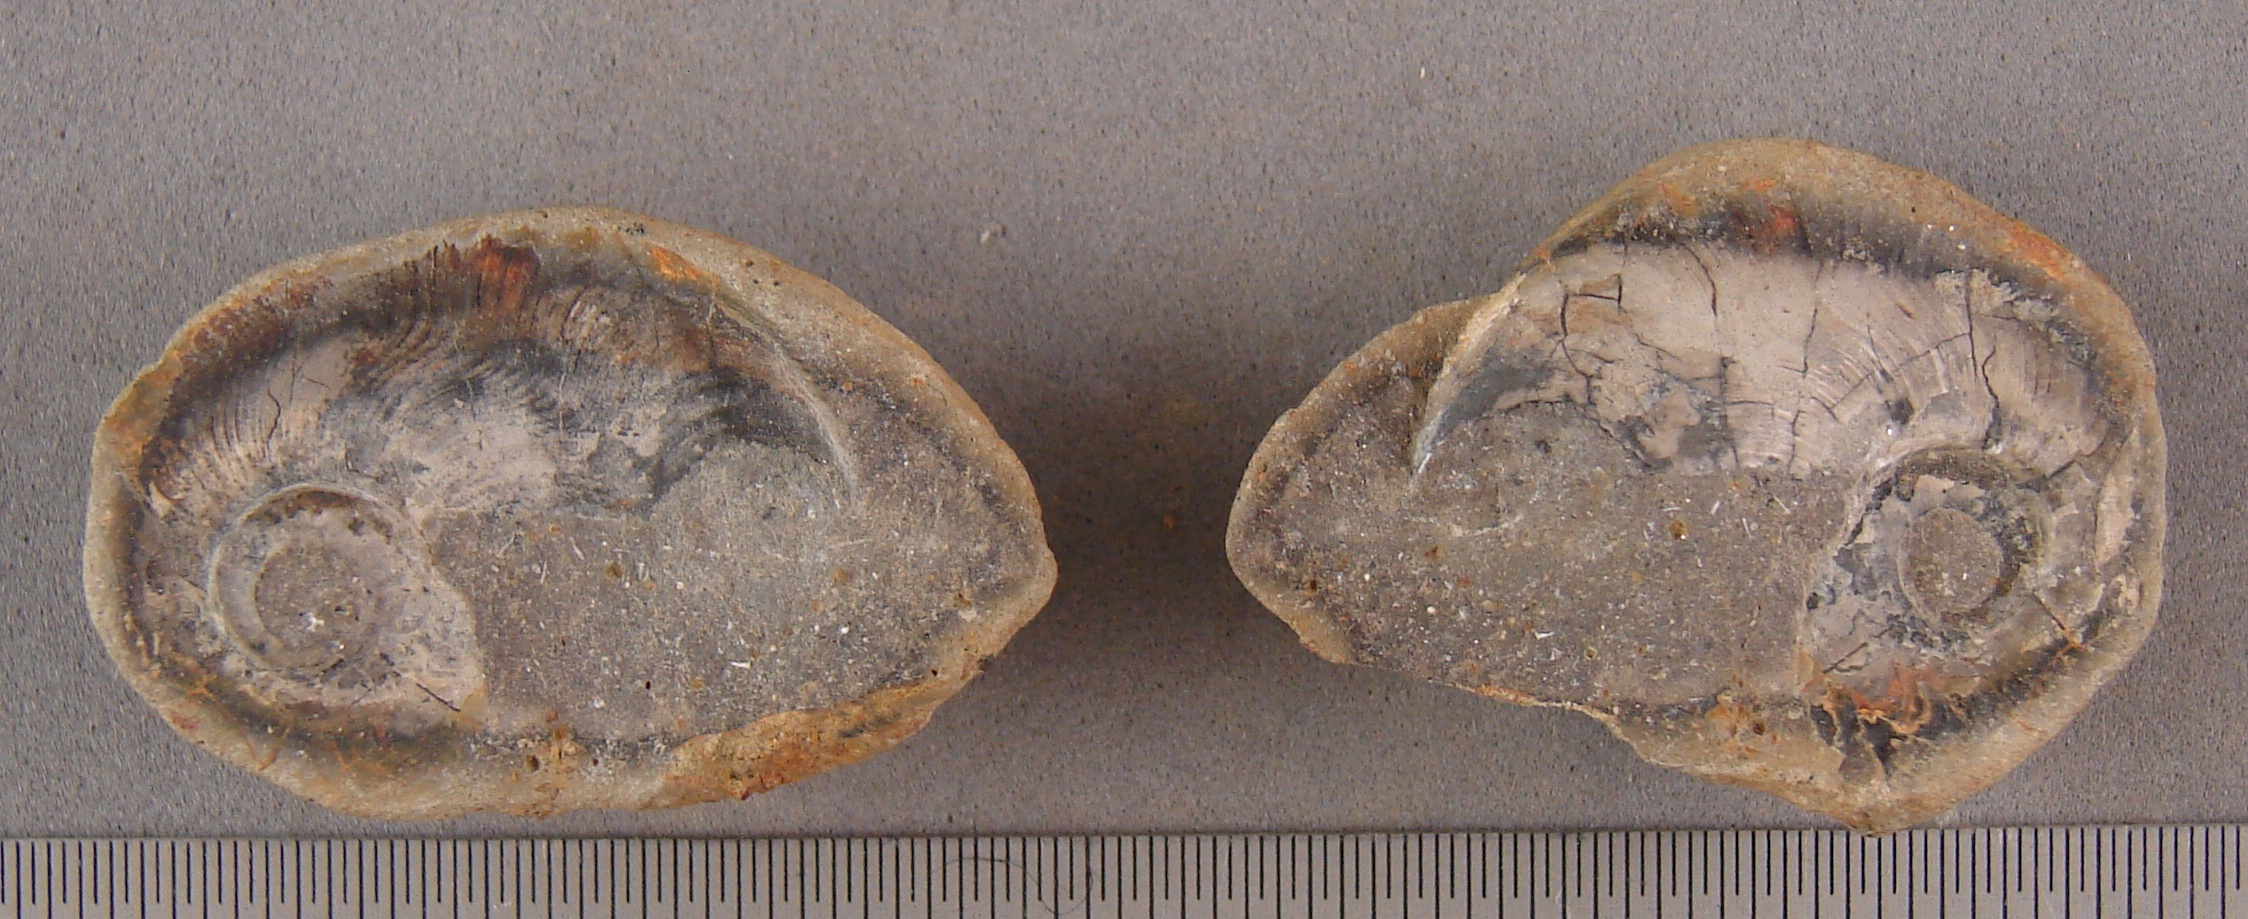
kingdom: Animalia
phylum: Mollusca
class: Cephalopoda
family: Graphoceratidae
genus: Toxolioceras
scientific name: Toxolioceras
